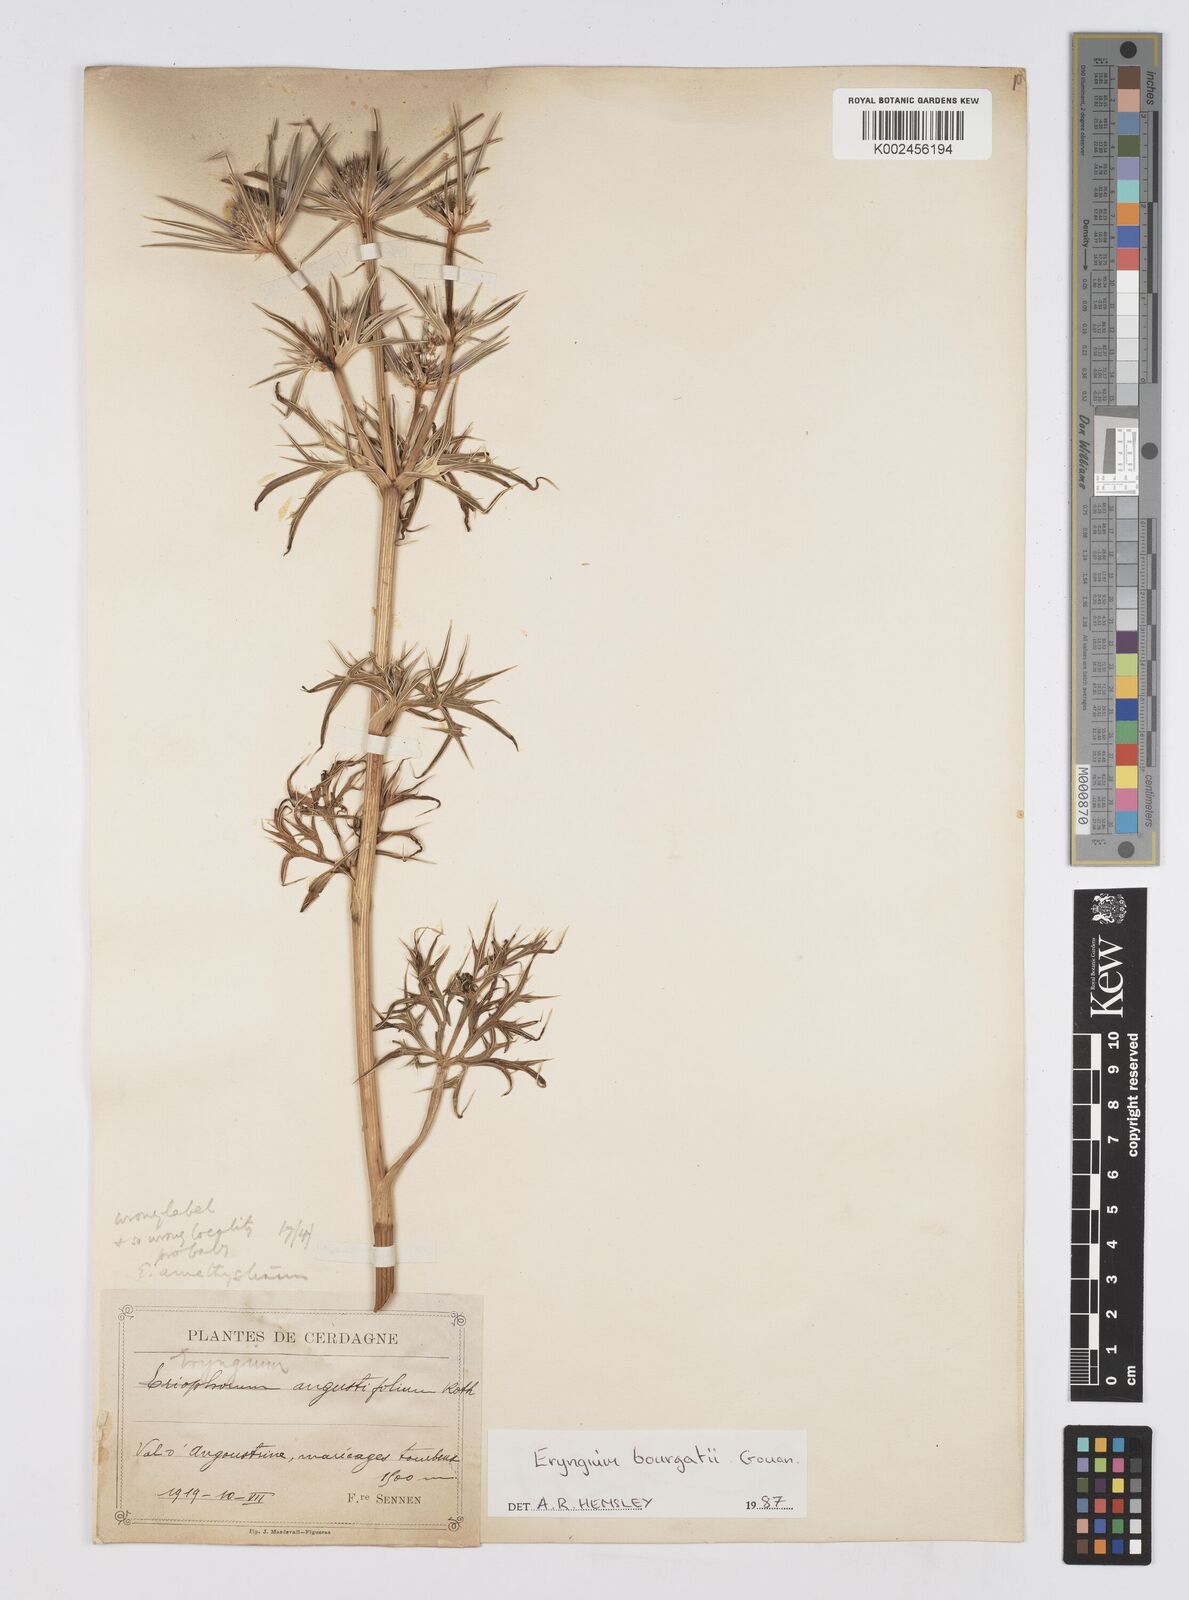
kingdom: Plantae
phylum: Tracheophyta
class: Magnoliopsida
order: Apiales
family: Apiaceae
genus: Eryngium
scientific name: Eryngium bourgatii
